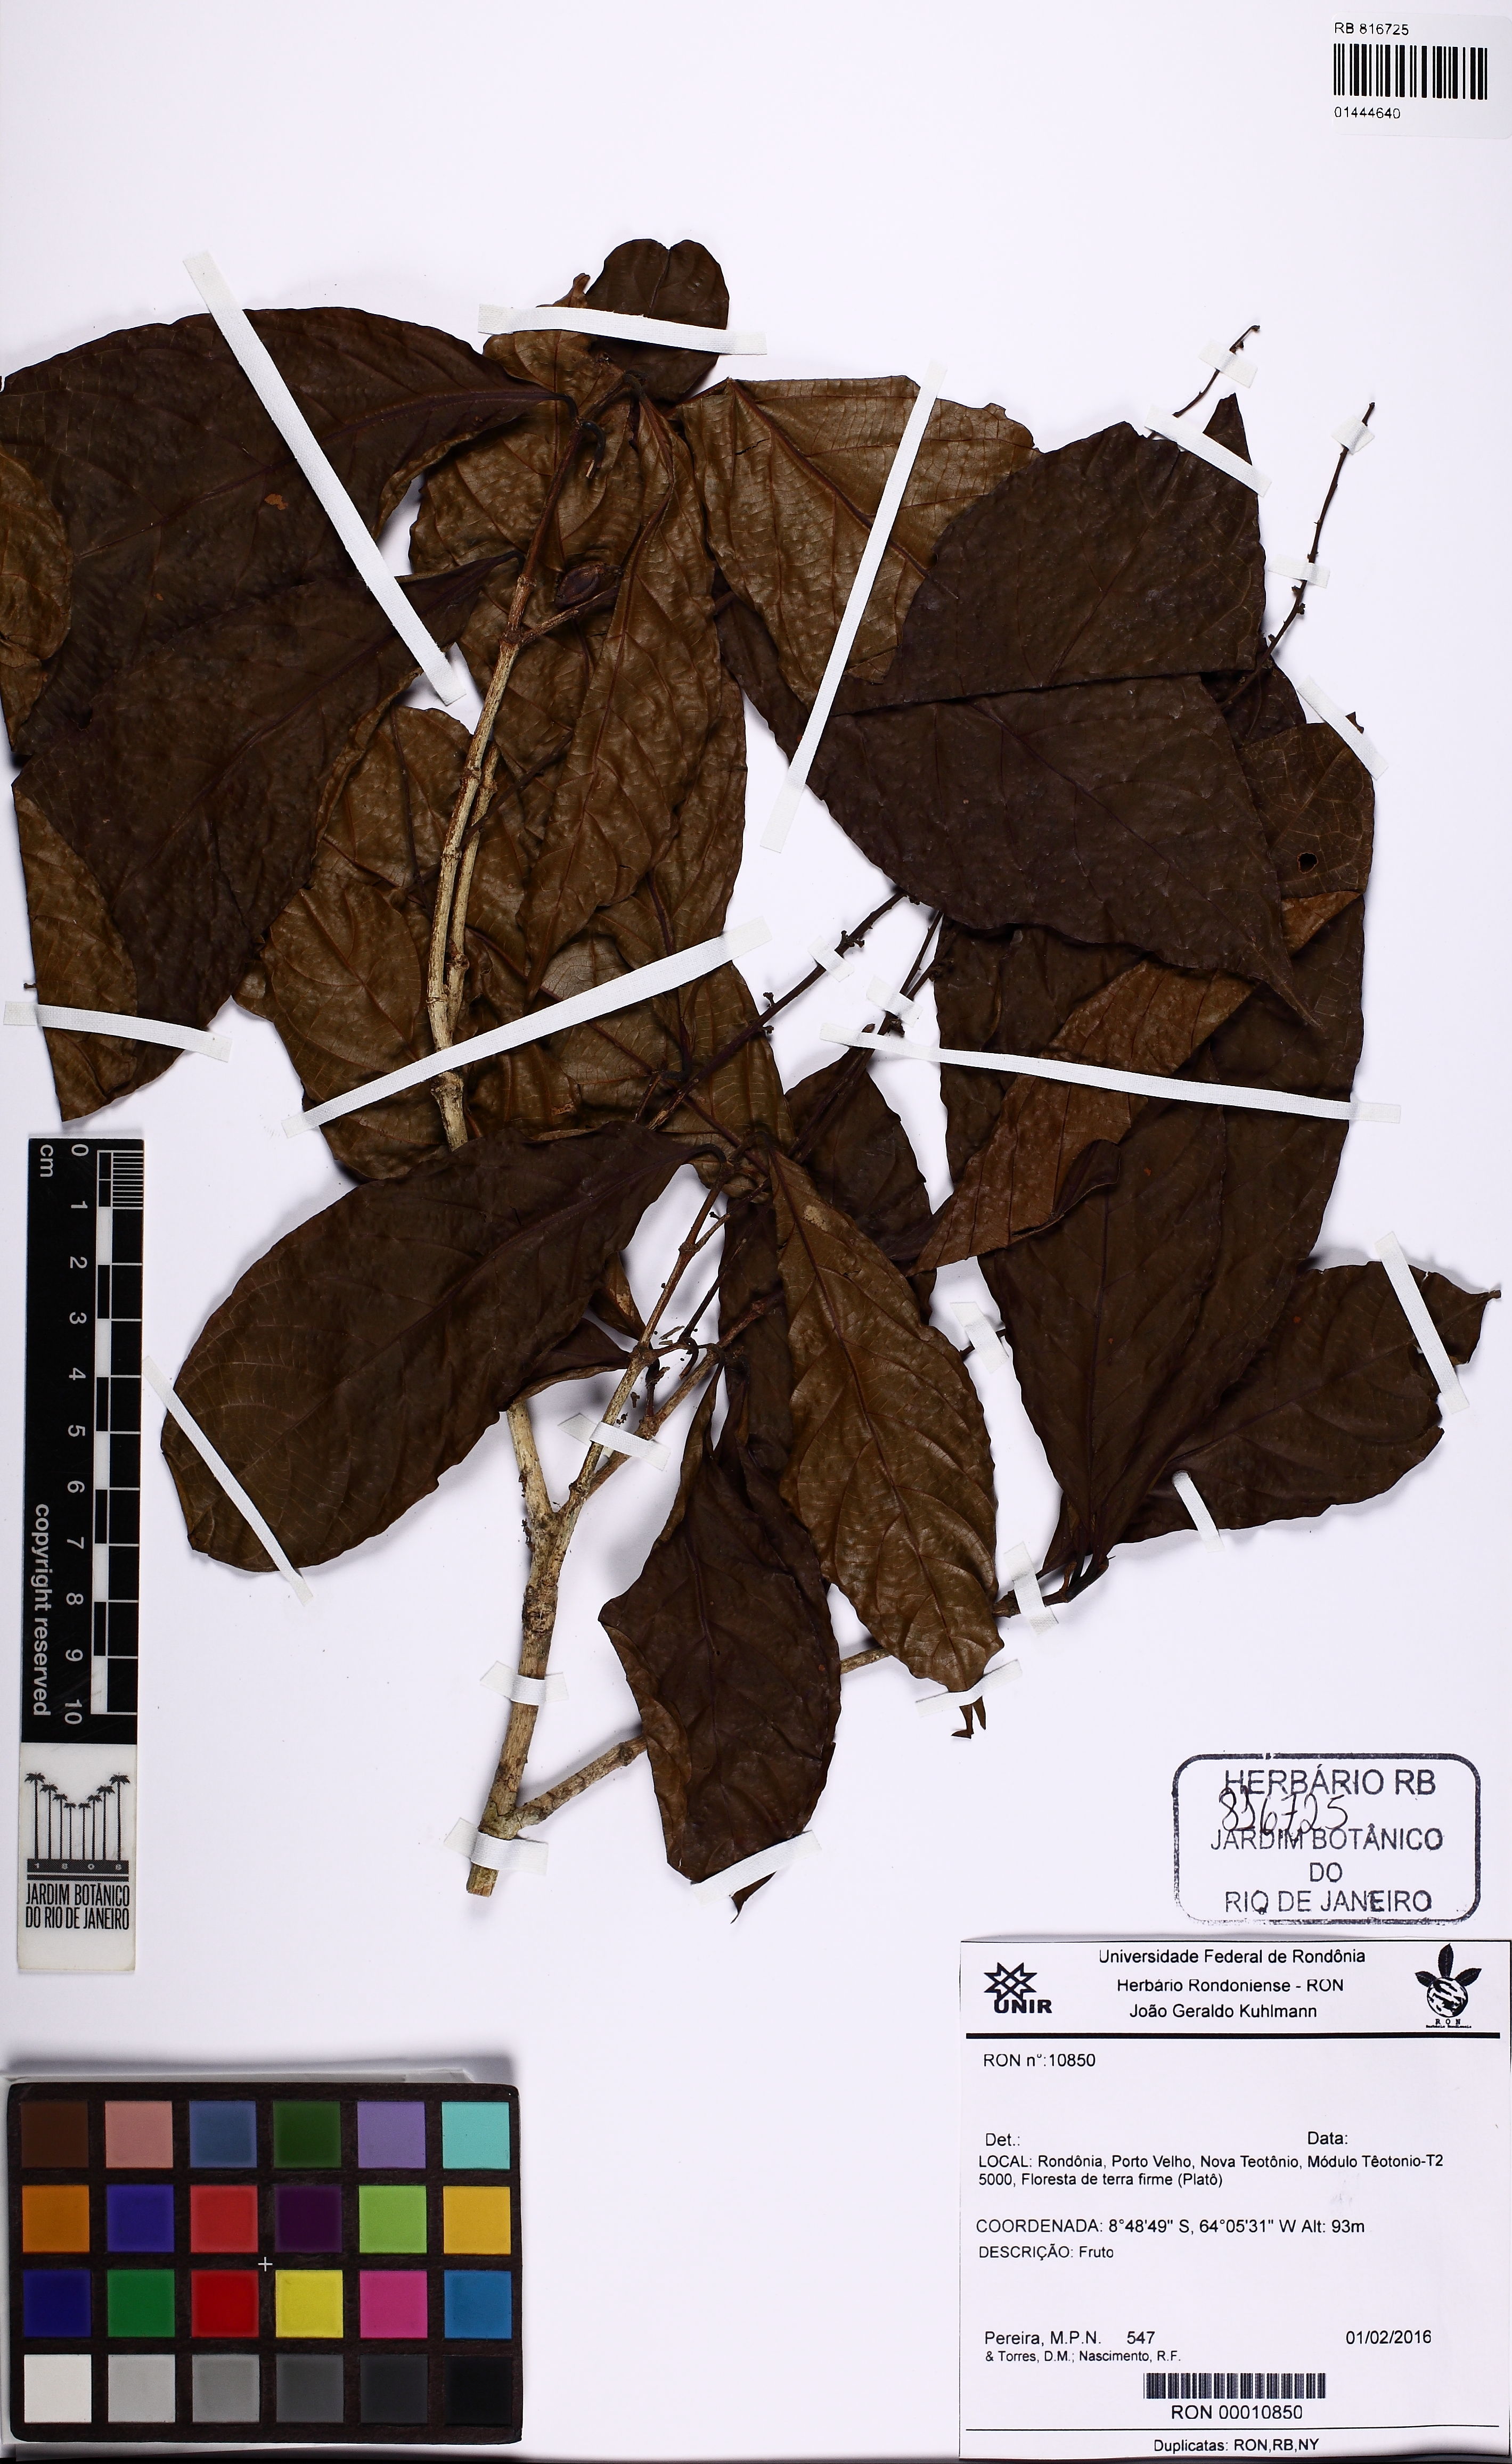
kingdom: Plantae
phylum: Tracheophyta
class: Magnoliopsida
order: Malpighiales
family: Violaceae
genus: Rinorea
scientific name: Rinorea
